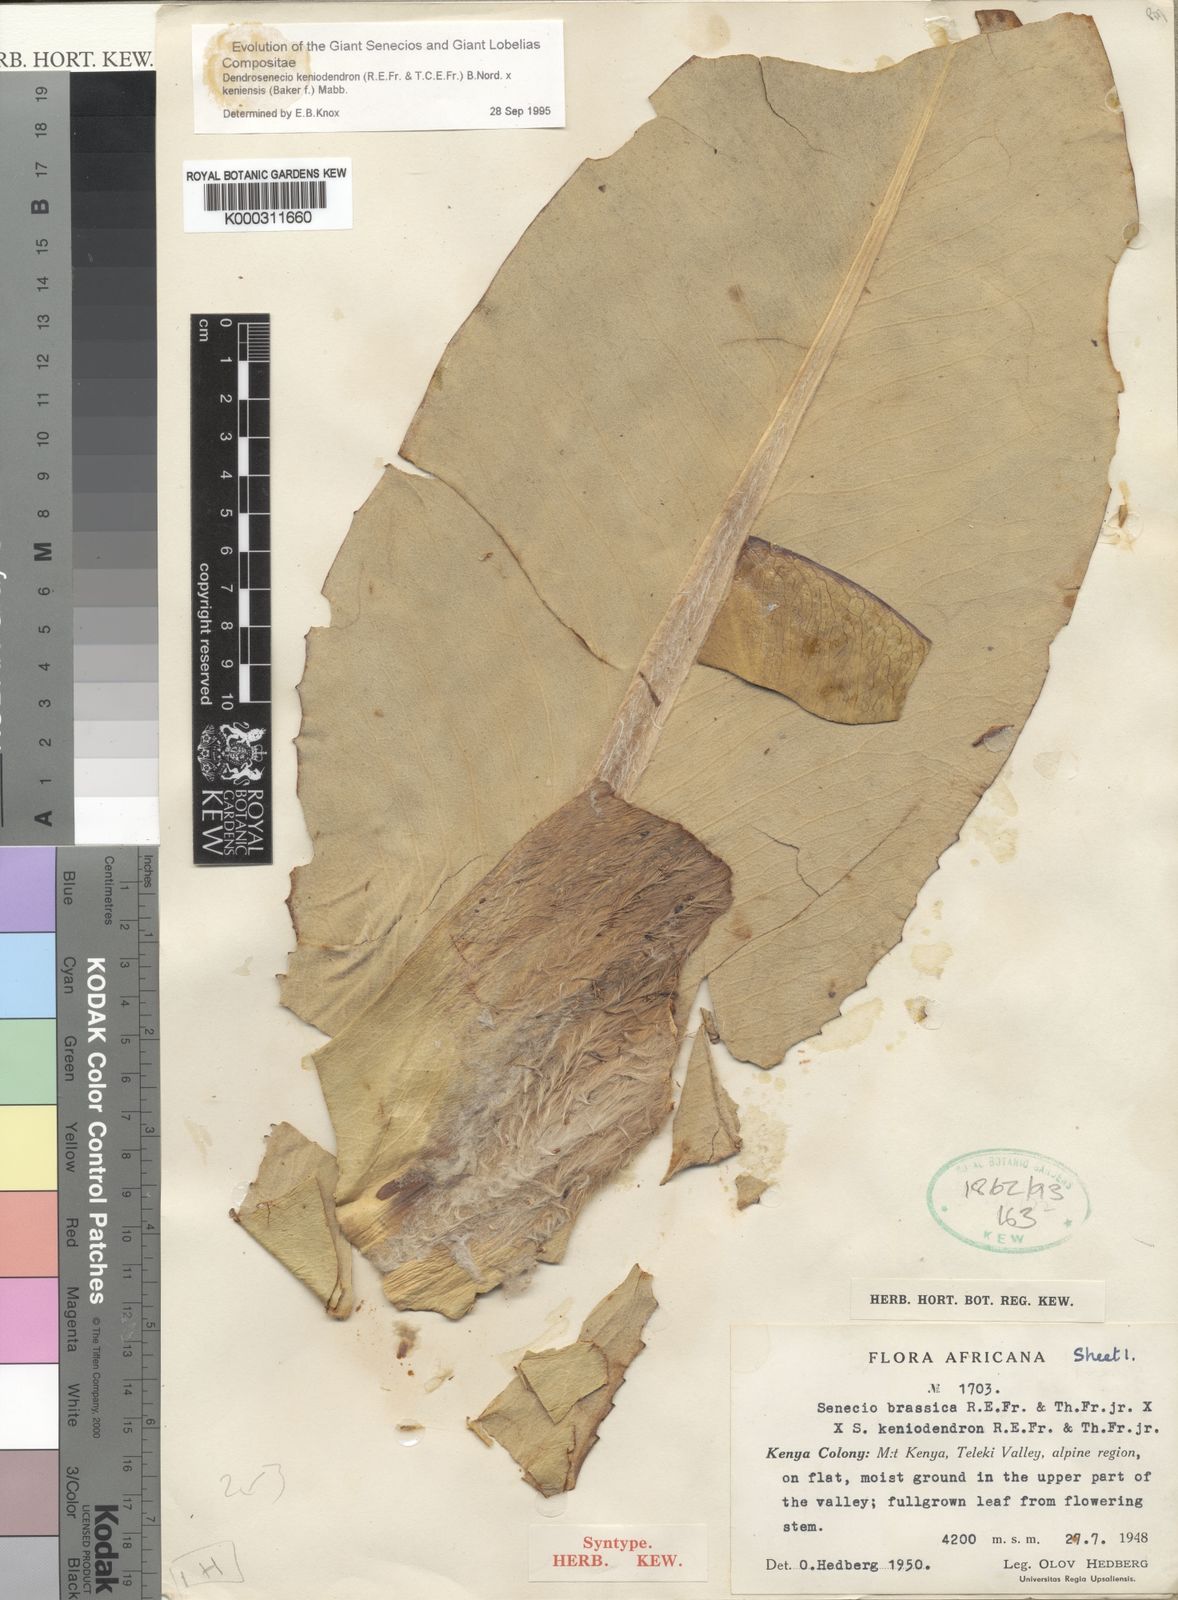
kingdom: Plantae
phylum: Tracheophyta
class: Magnoliopsida
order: Asterales
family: Asteraceae
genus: Dendrosenecio
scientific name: Dendrosenecio
